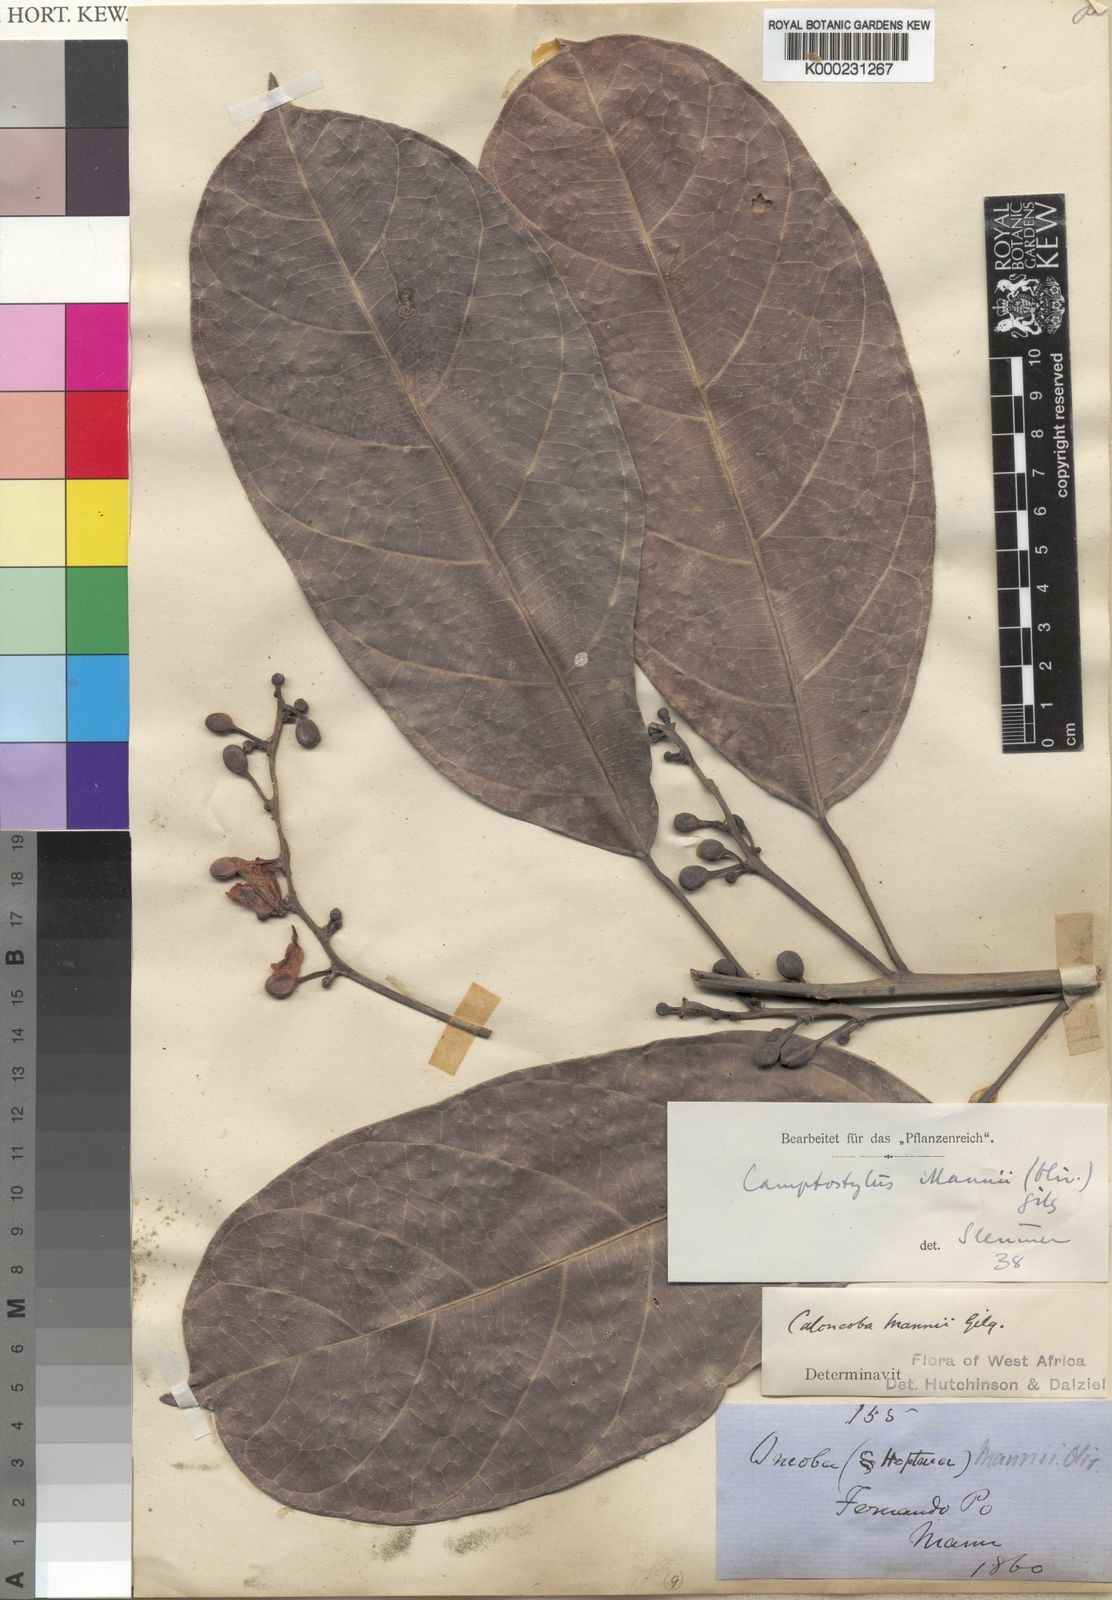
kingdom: Plantae
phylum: Tracheophyta
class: Magnoliopsida
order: Malpighiales
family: Achariaceae
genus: Camptostylus
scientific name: Camptostylus mannii
